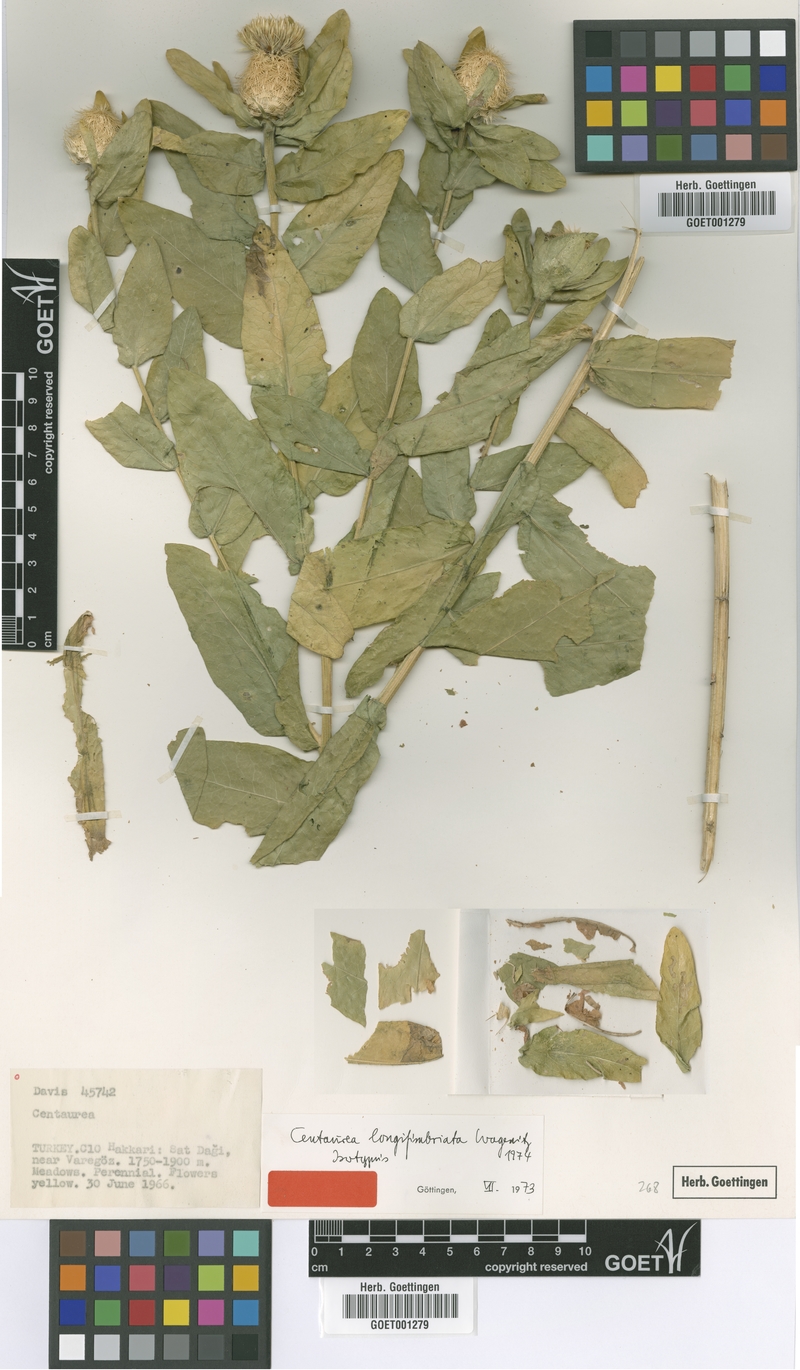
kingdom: Plantae
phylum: Tracheophyta
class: Magnoliopsida
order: Asterales
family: Asteraceae
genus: Centaurea
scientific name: Centaurea longifimbriata
